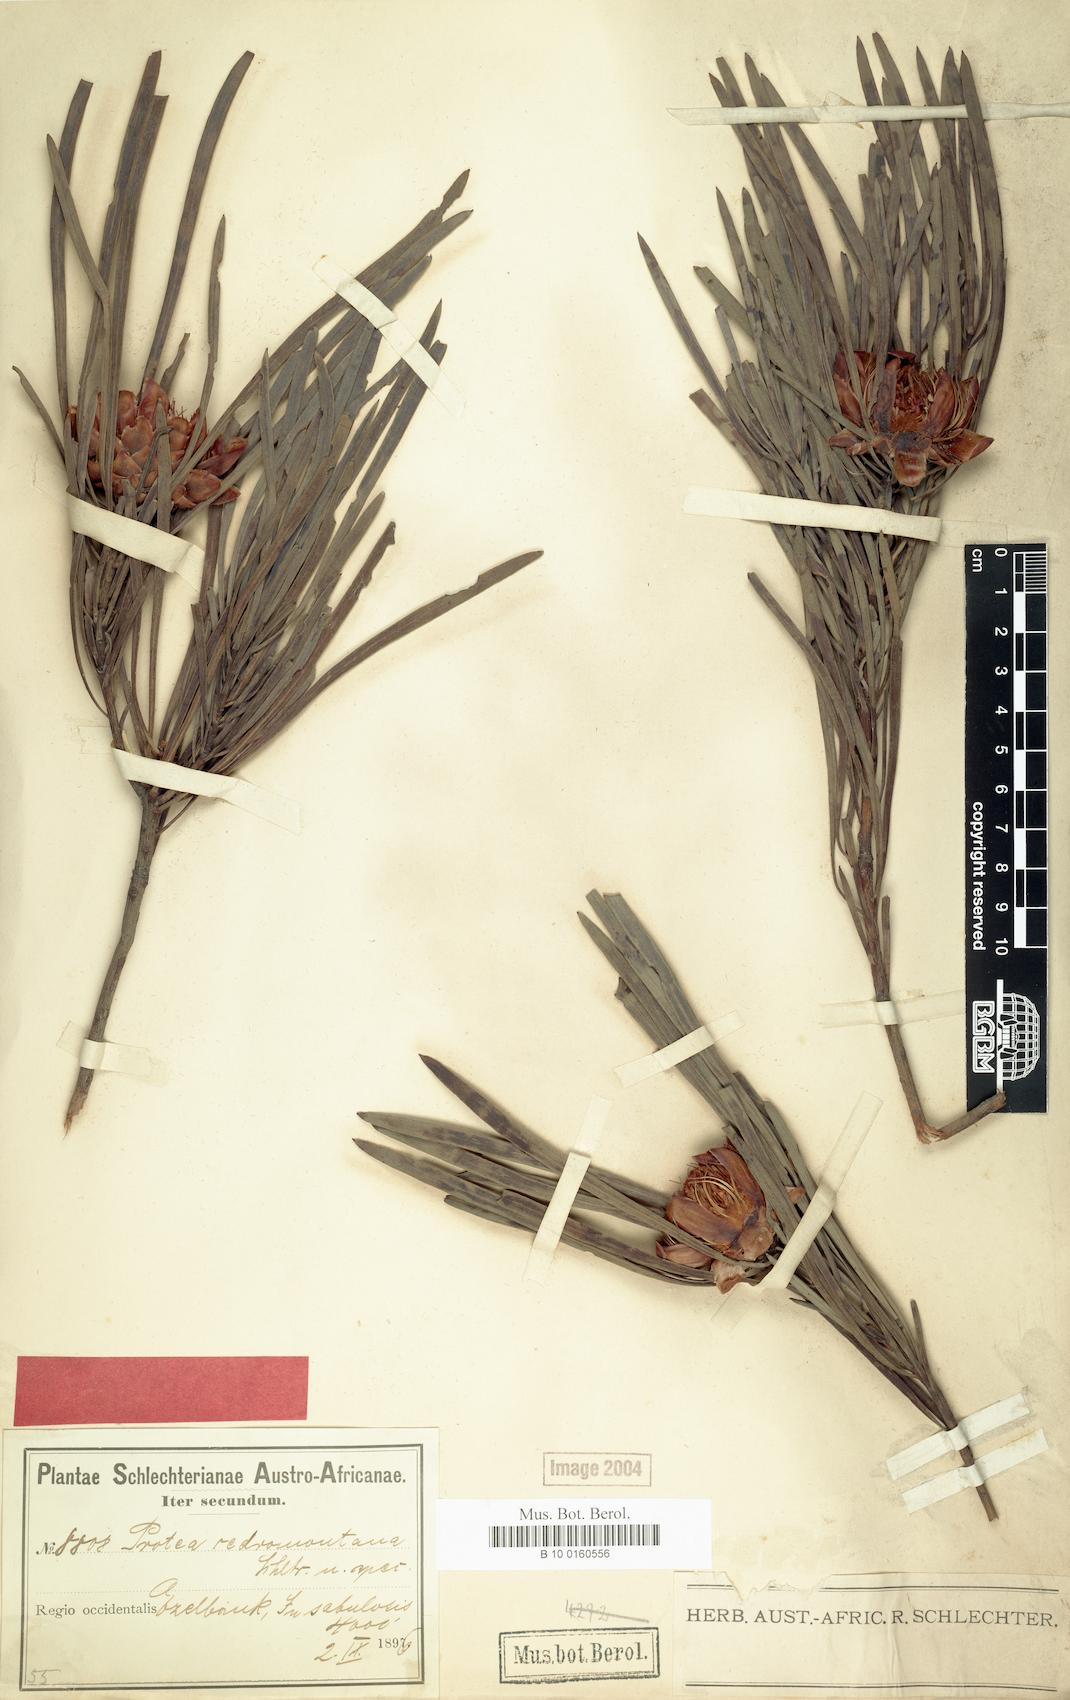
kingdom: Plantae
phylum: Tracheophyta
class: Magnoliopsida
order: Proteales
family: Proteaceae
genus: Protea
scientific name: Protea acuminata
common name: Black-rim sugarbush
